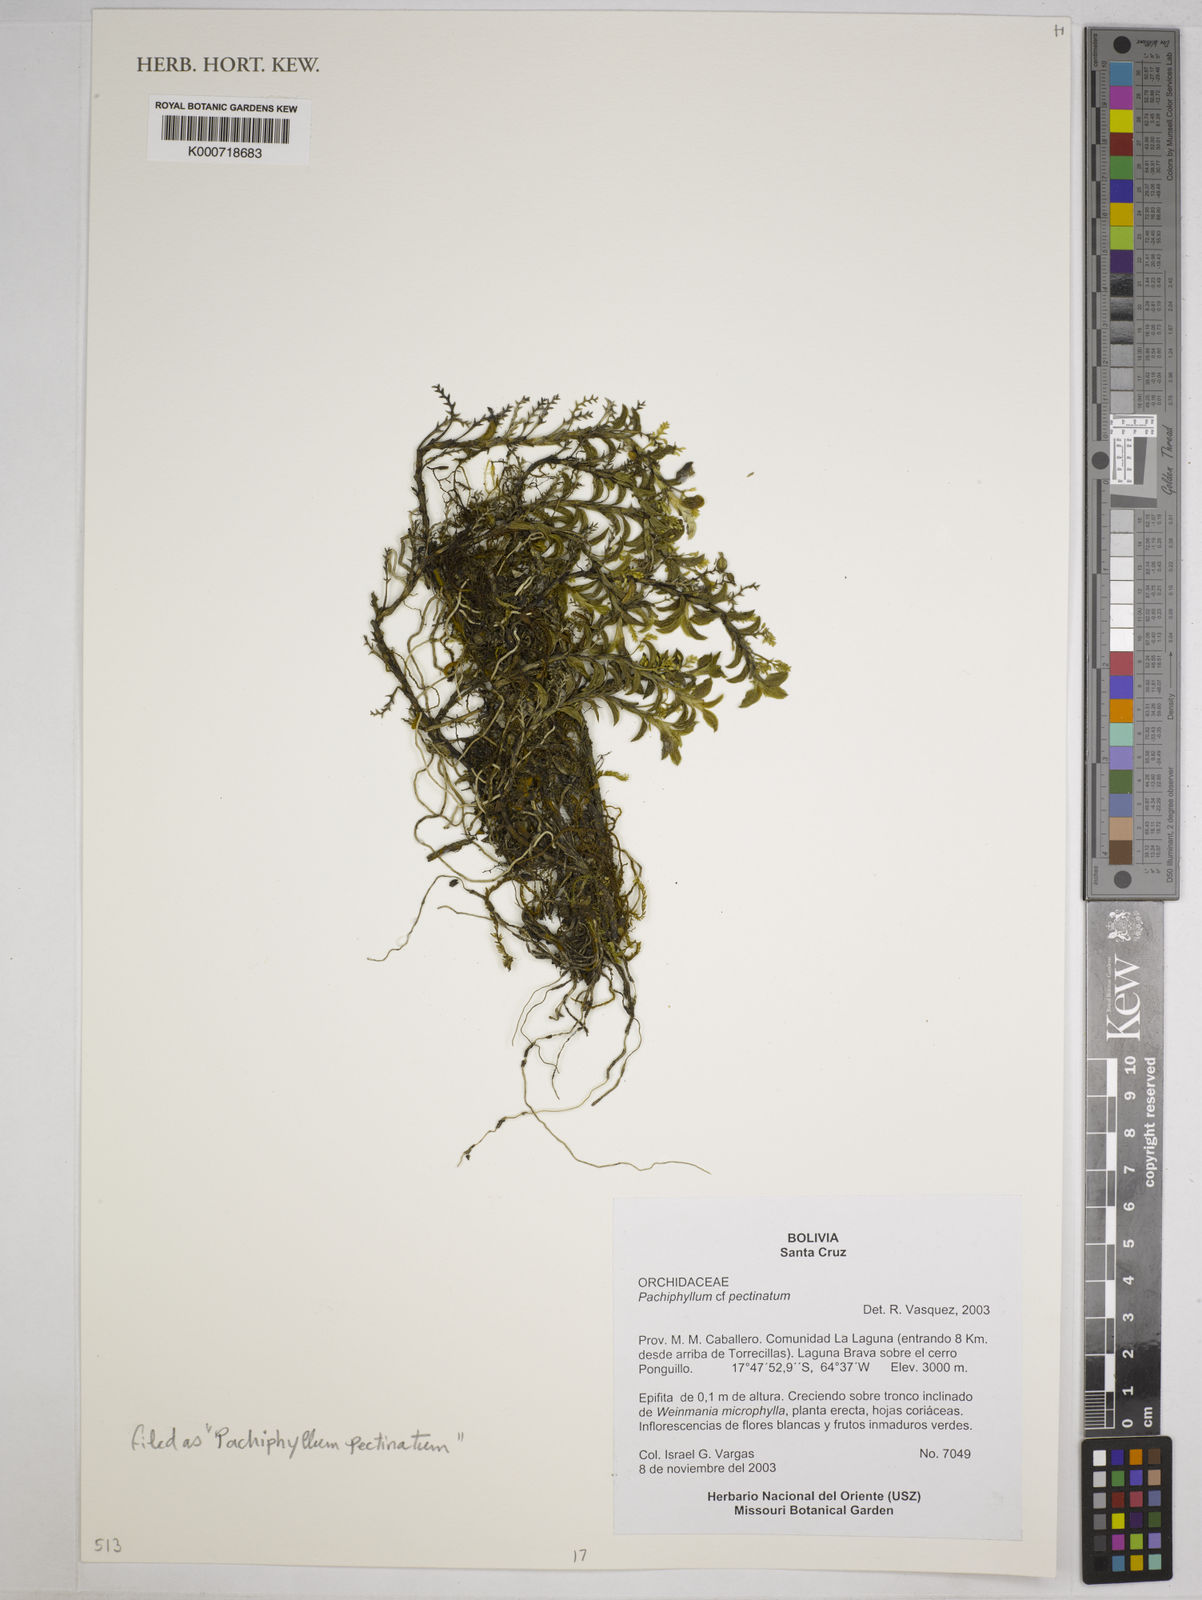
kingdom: Plantae
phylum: Tracheophyta
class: Liliopsida
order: Asparagales
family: Orchidaceae
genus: Fernandezia
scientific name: Fernandezia pectinata
